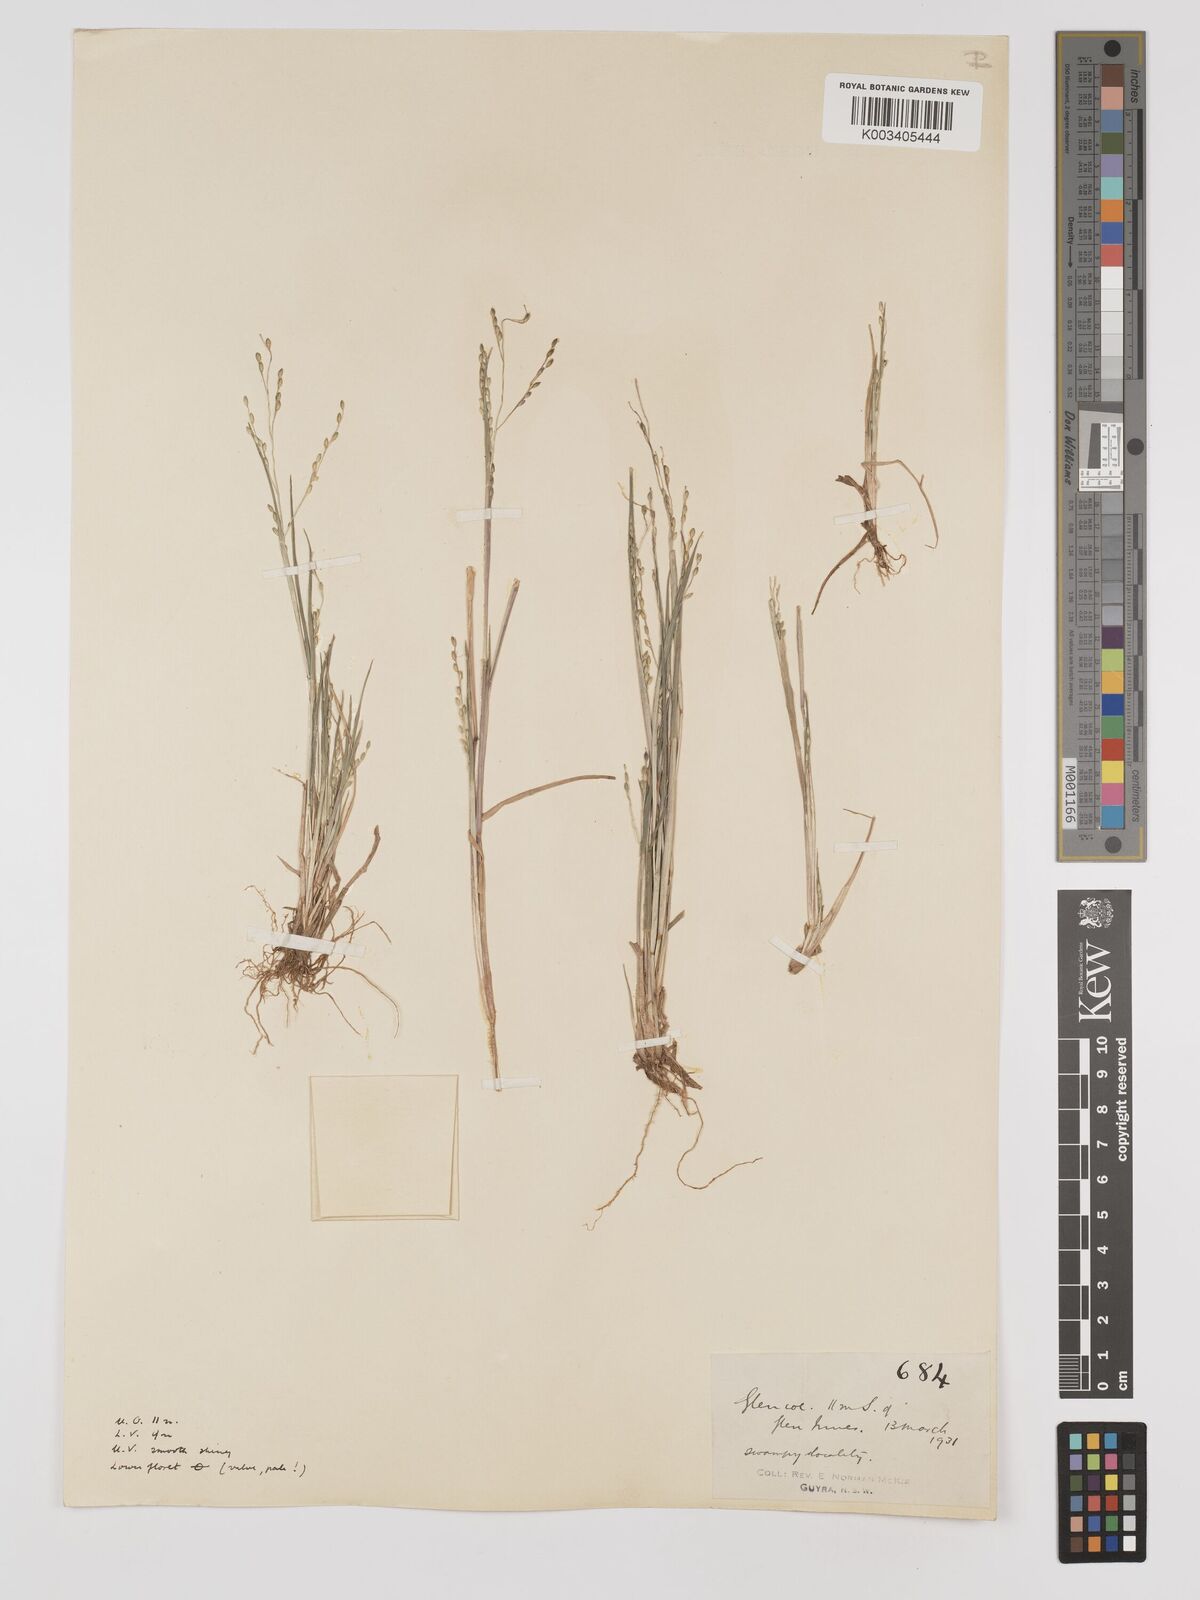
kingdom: Plantae
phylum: Tracheophyta
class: Liliopsida
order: Poales
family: Poaceae
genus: Panicum
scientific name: Panicum schinzii
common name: Sweet grass
